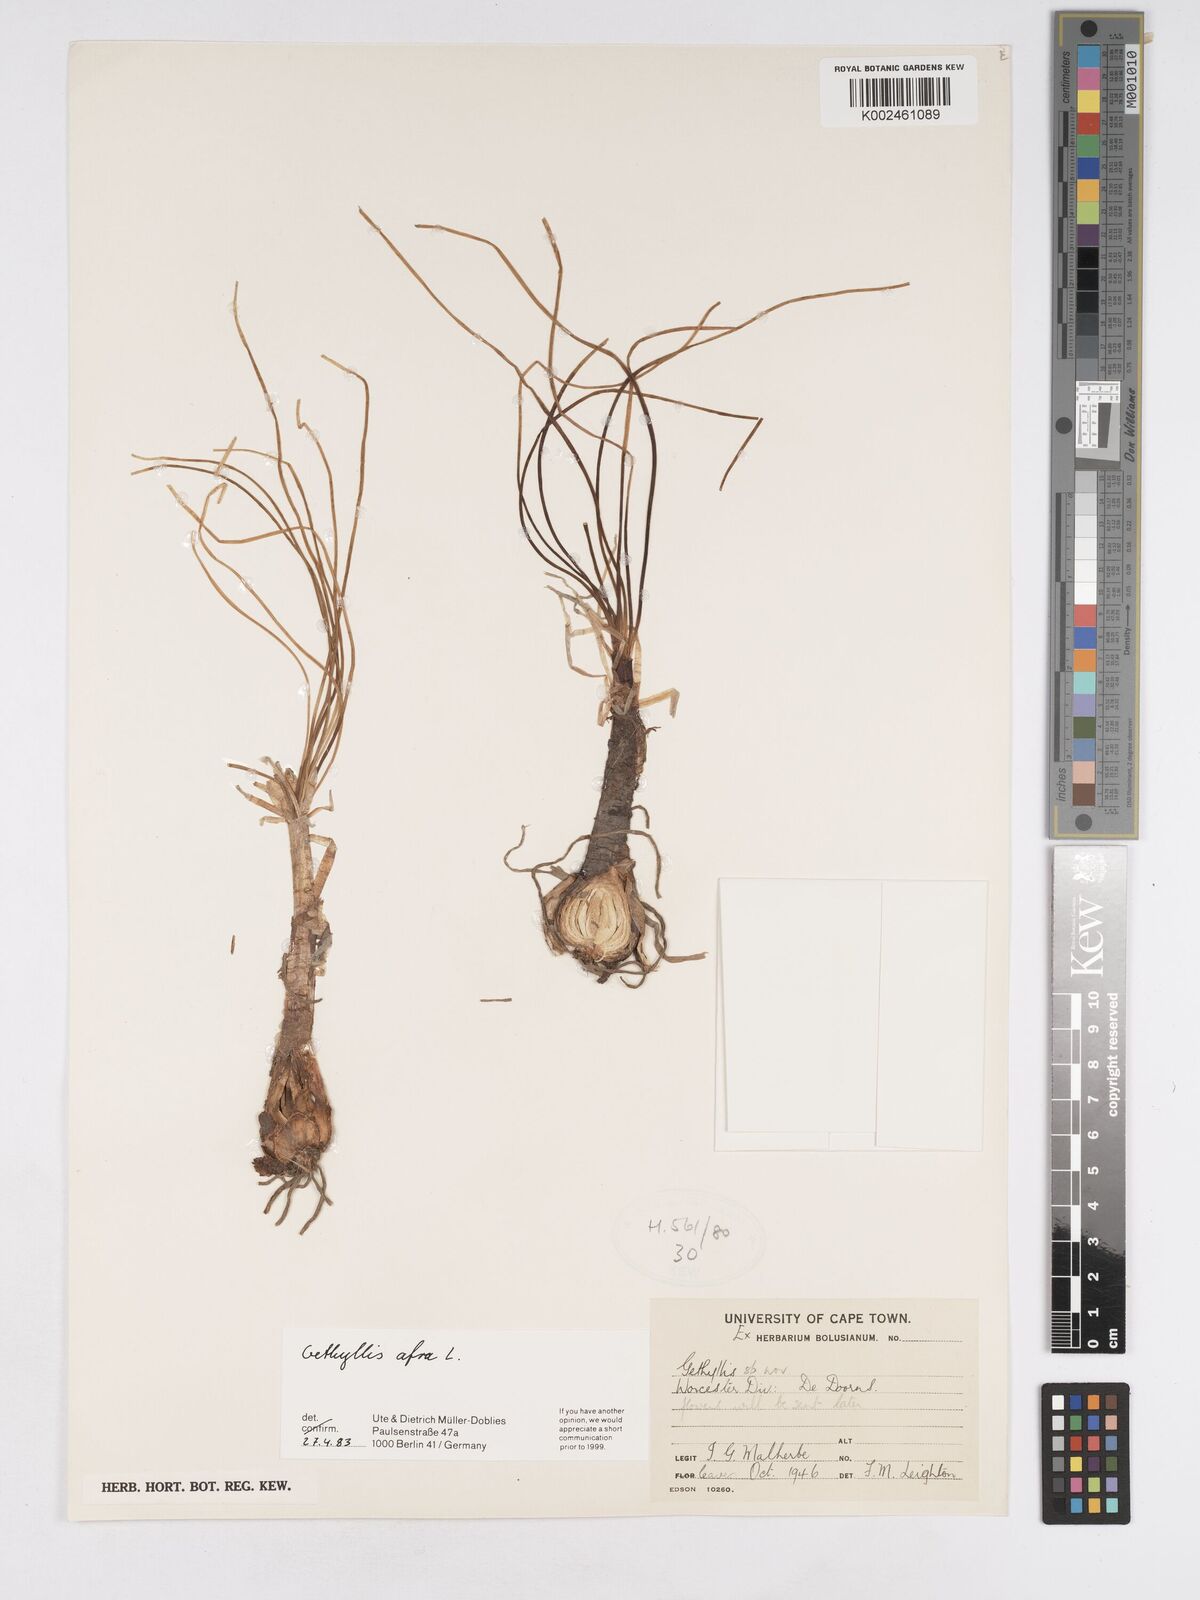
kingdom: Plantae
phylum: Tracheophyta
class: Liliopsida
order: Asparagales
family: Amaryllidaceae
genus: Gethyllis
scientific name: Gethyllis afra
